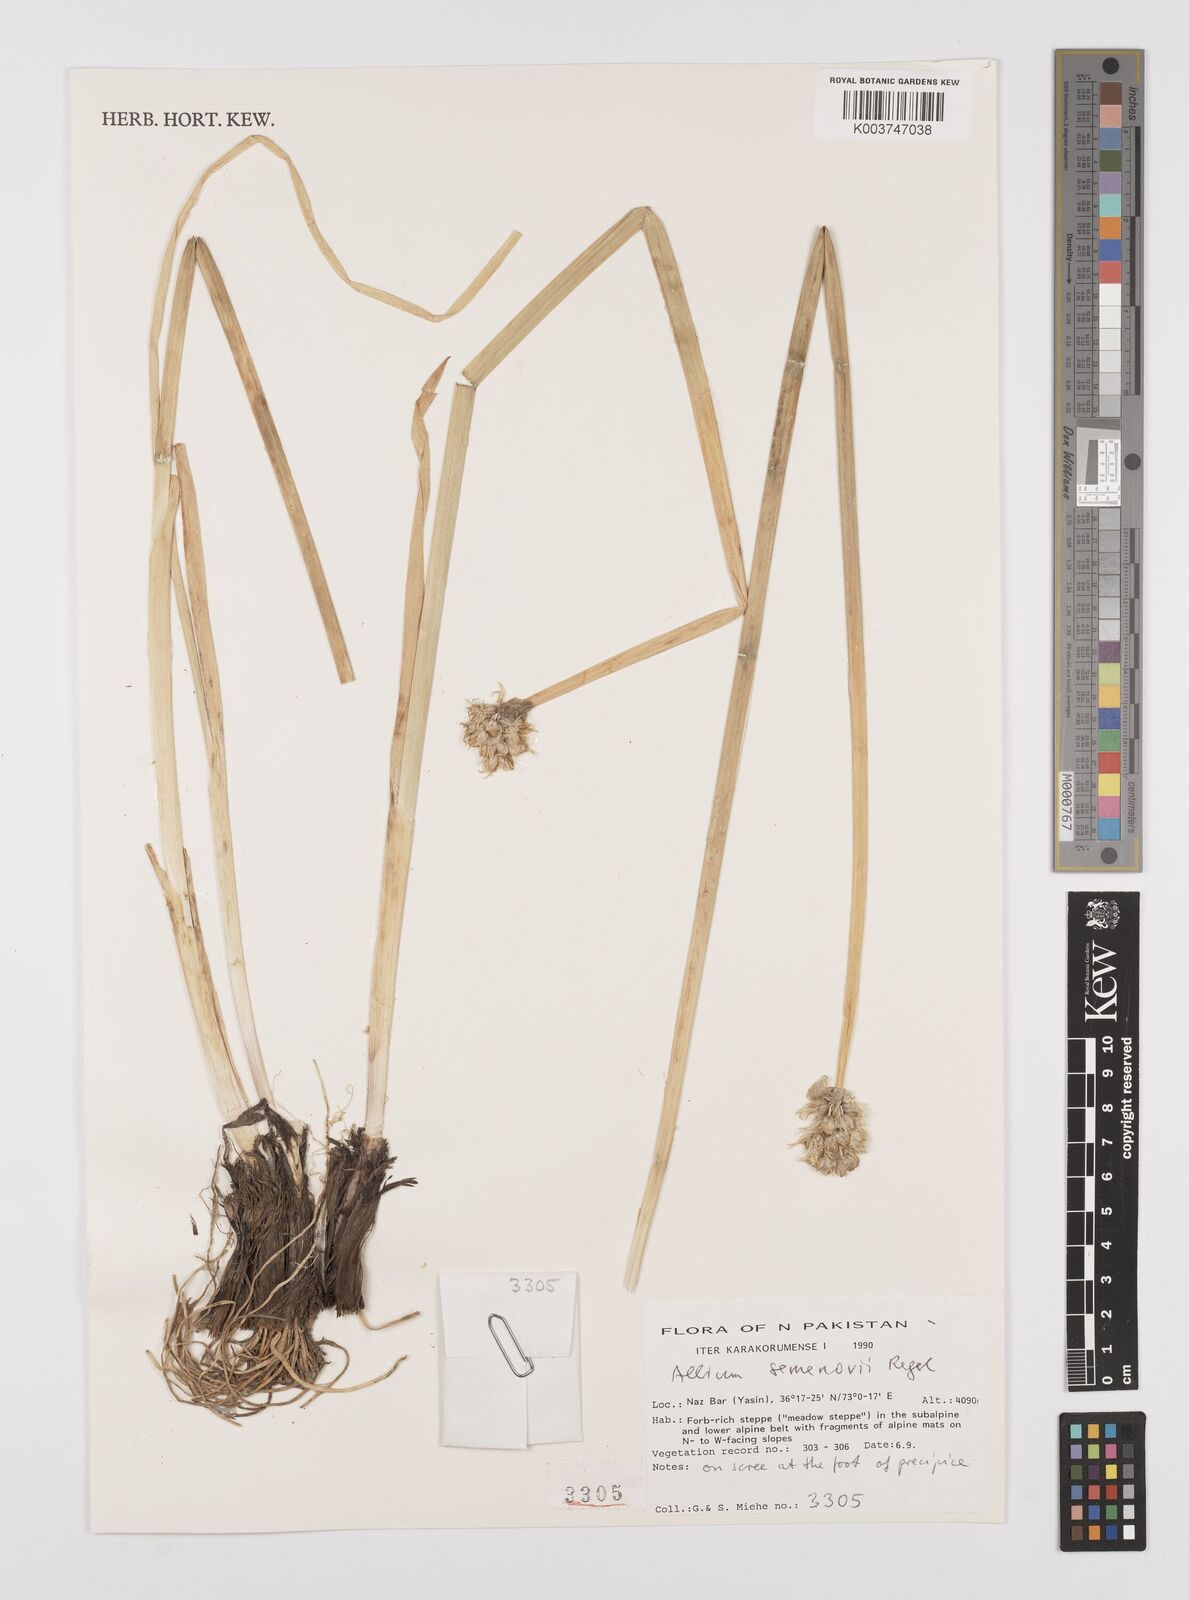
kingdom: Plantae
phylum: Tracheophyta
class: Liliopsida
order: Asparagales
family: Amaryllidaceae
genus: Allium
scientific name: Allium semenovii
